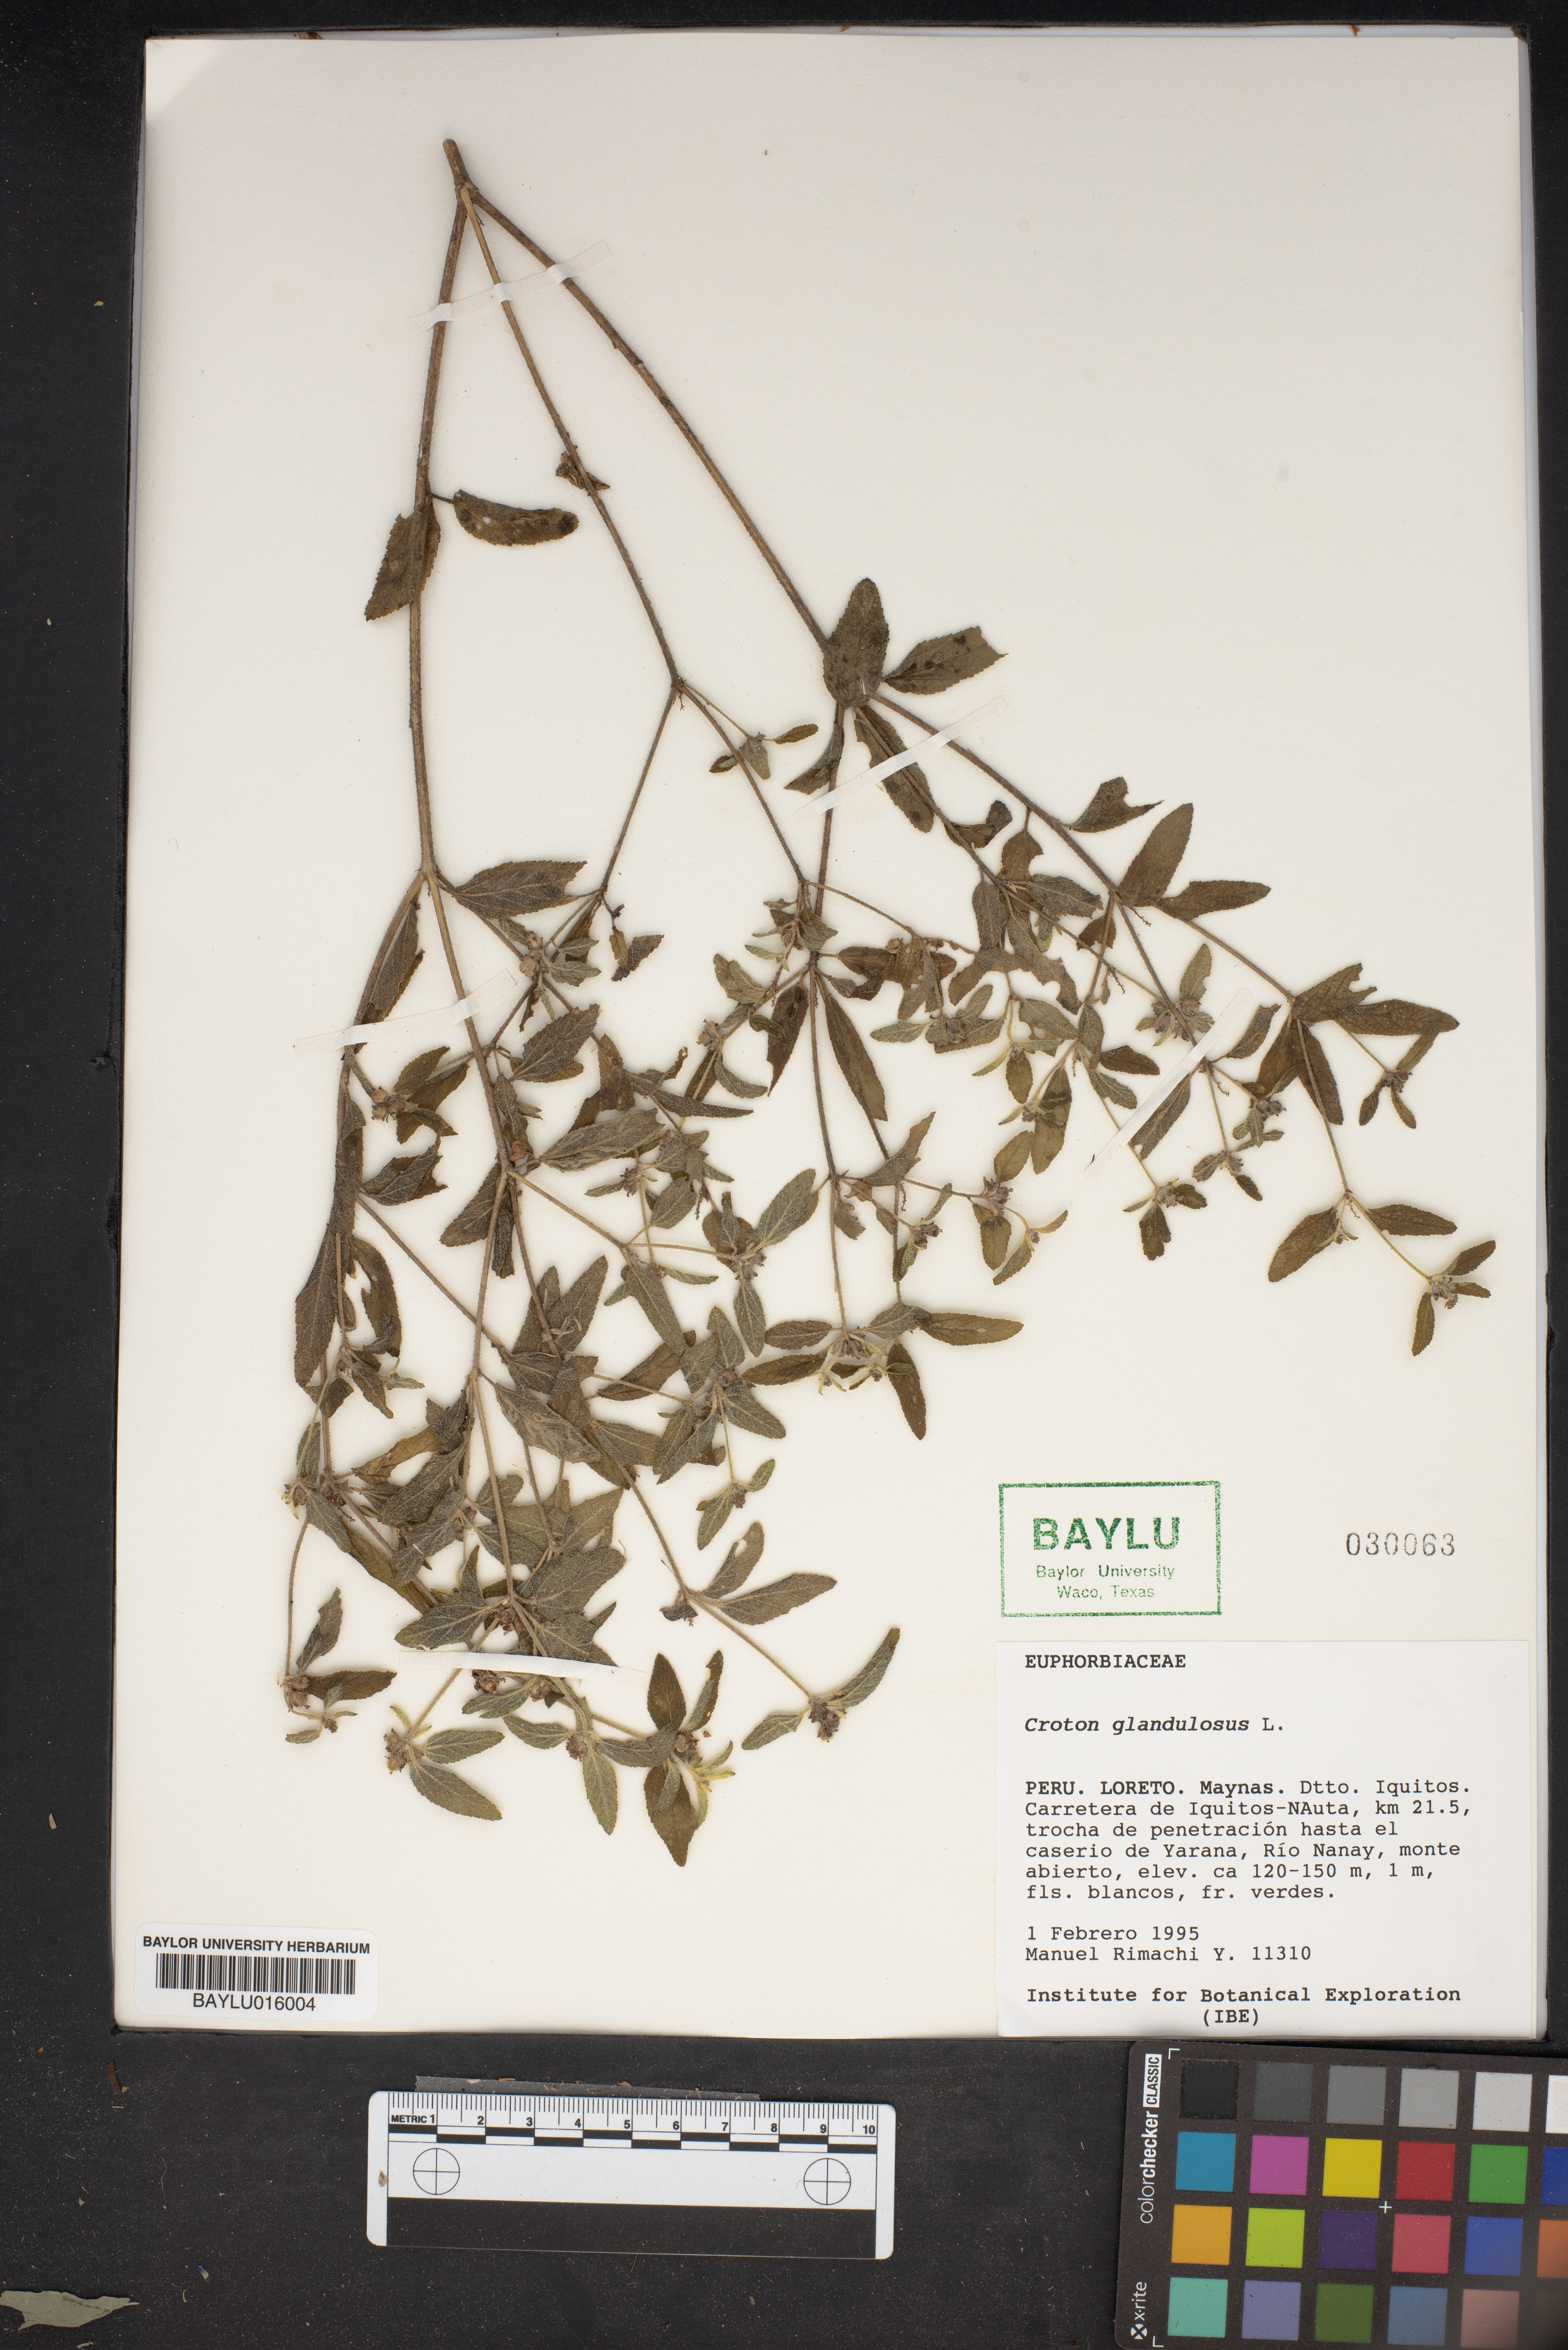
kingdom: Plantae
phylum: Tracheophyta
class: Magnoliopsida
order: Malpighiales
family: Euphorbiaceae
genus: Croton
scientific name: Croton glandulosus
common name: Tropic croton
